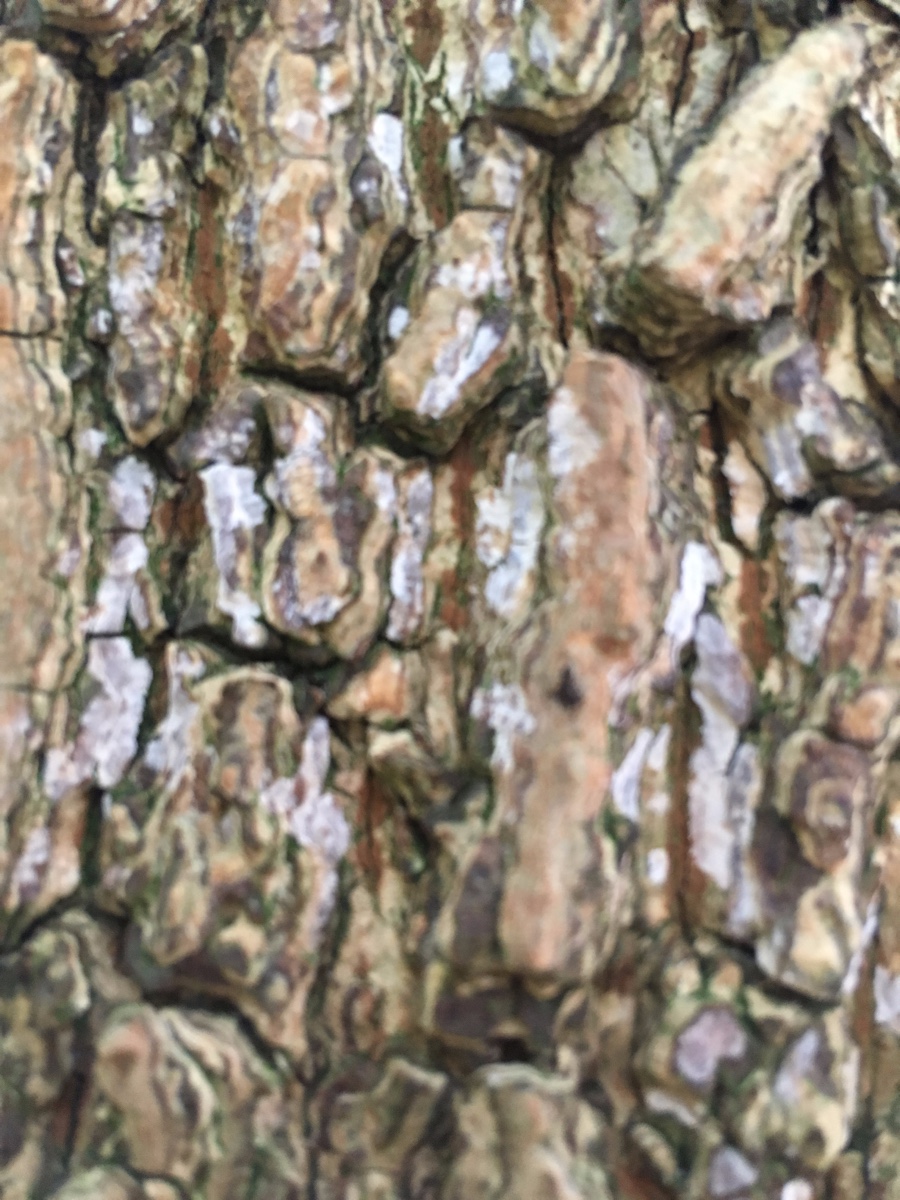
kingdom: Fungi
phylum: Basidiomycota
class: Agaricomycetes
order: Agaricales
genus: Dendrothele
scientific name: Dendrothele acerina
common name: navr-kalkplet
